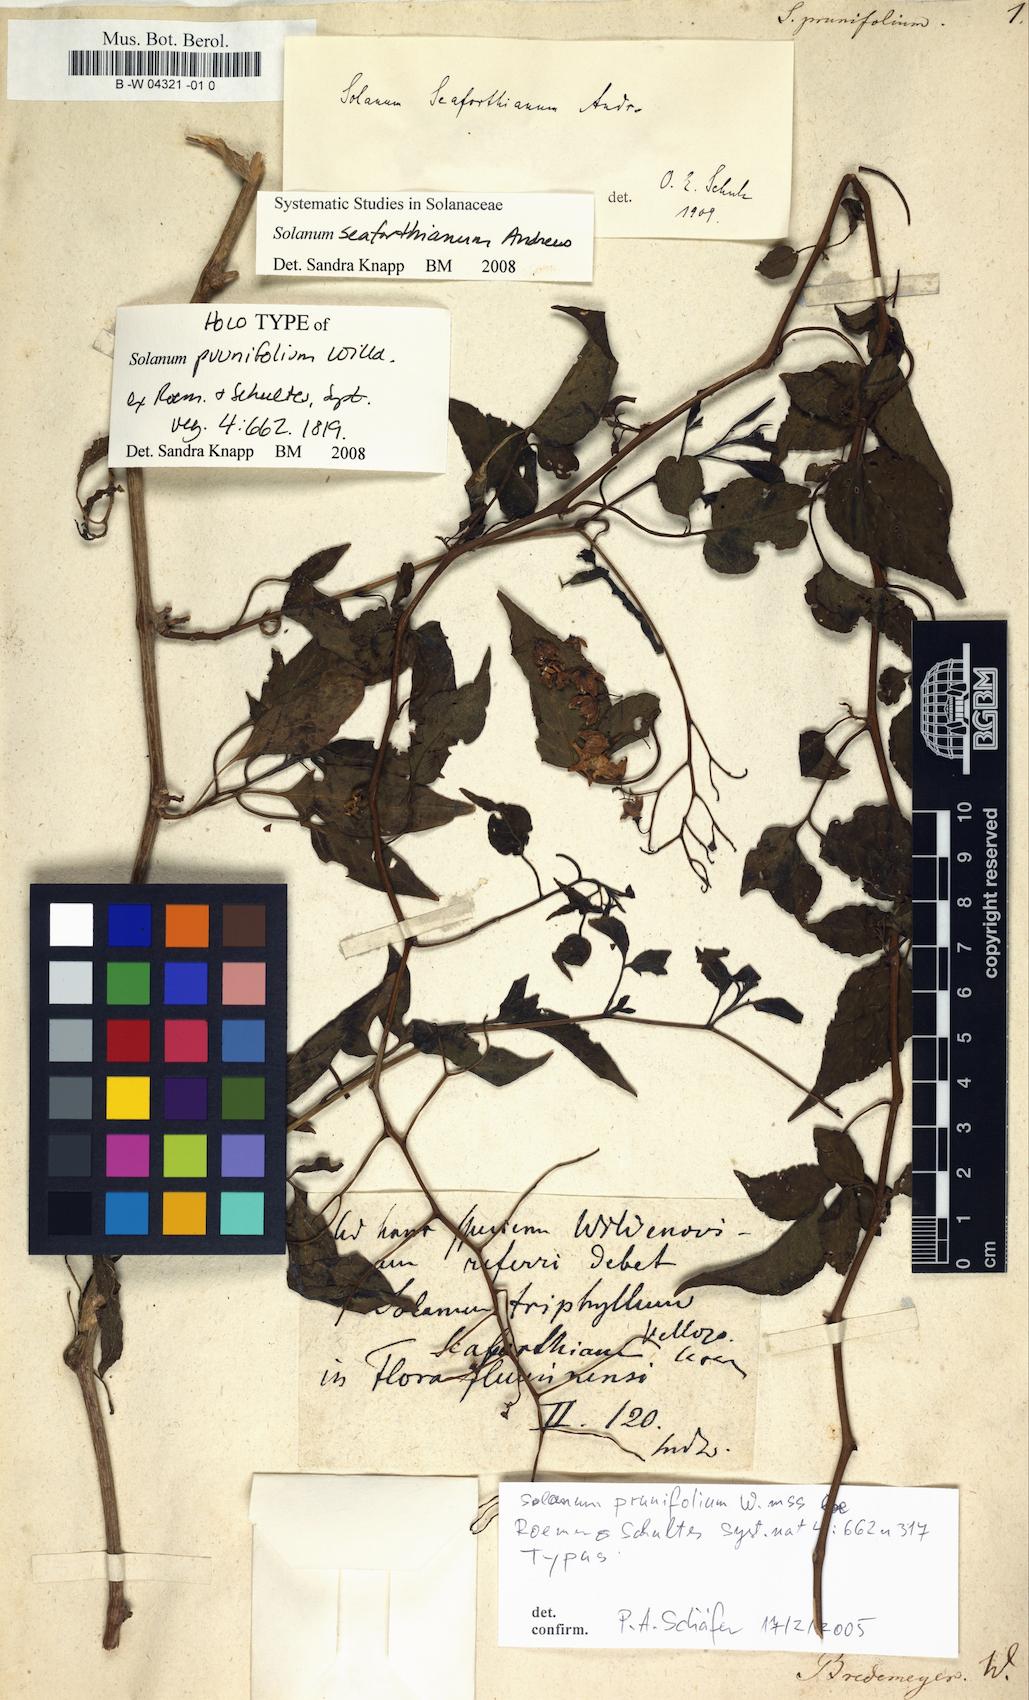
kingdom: Plantae
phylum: Tracheophyta
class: Magnoliopsida
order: Solanales
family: Solanaceae
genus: Solanum
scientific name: Solanum seaforthianum
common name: Brazilian nightshade
